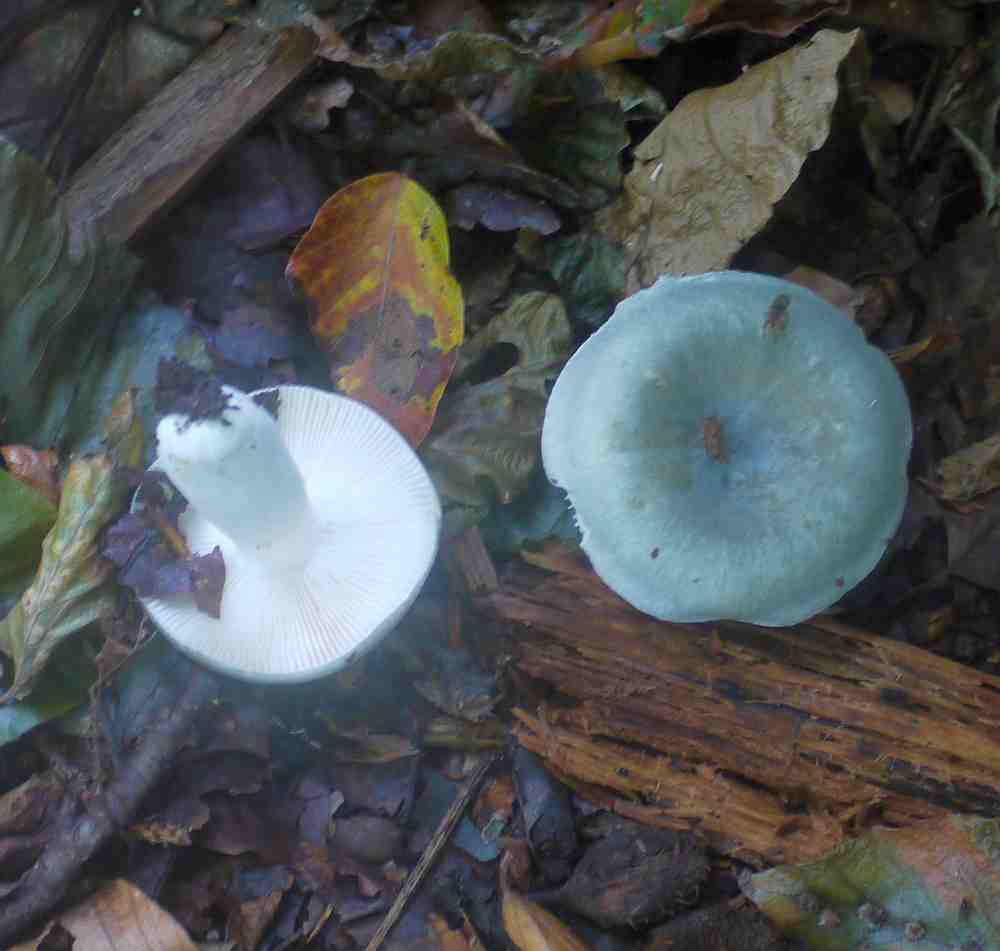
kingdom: Fungi
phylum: Basidiomycota
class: Agaricomycetes
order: Russulales
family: Russulaceae
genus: Russula
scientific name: Russula grisea
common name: grålig skørhat
